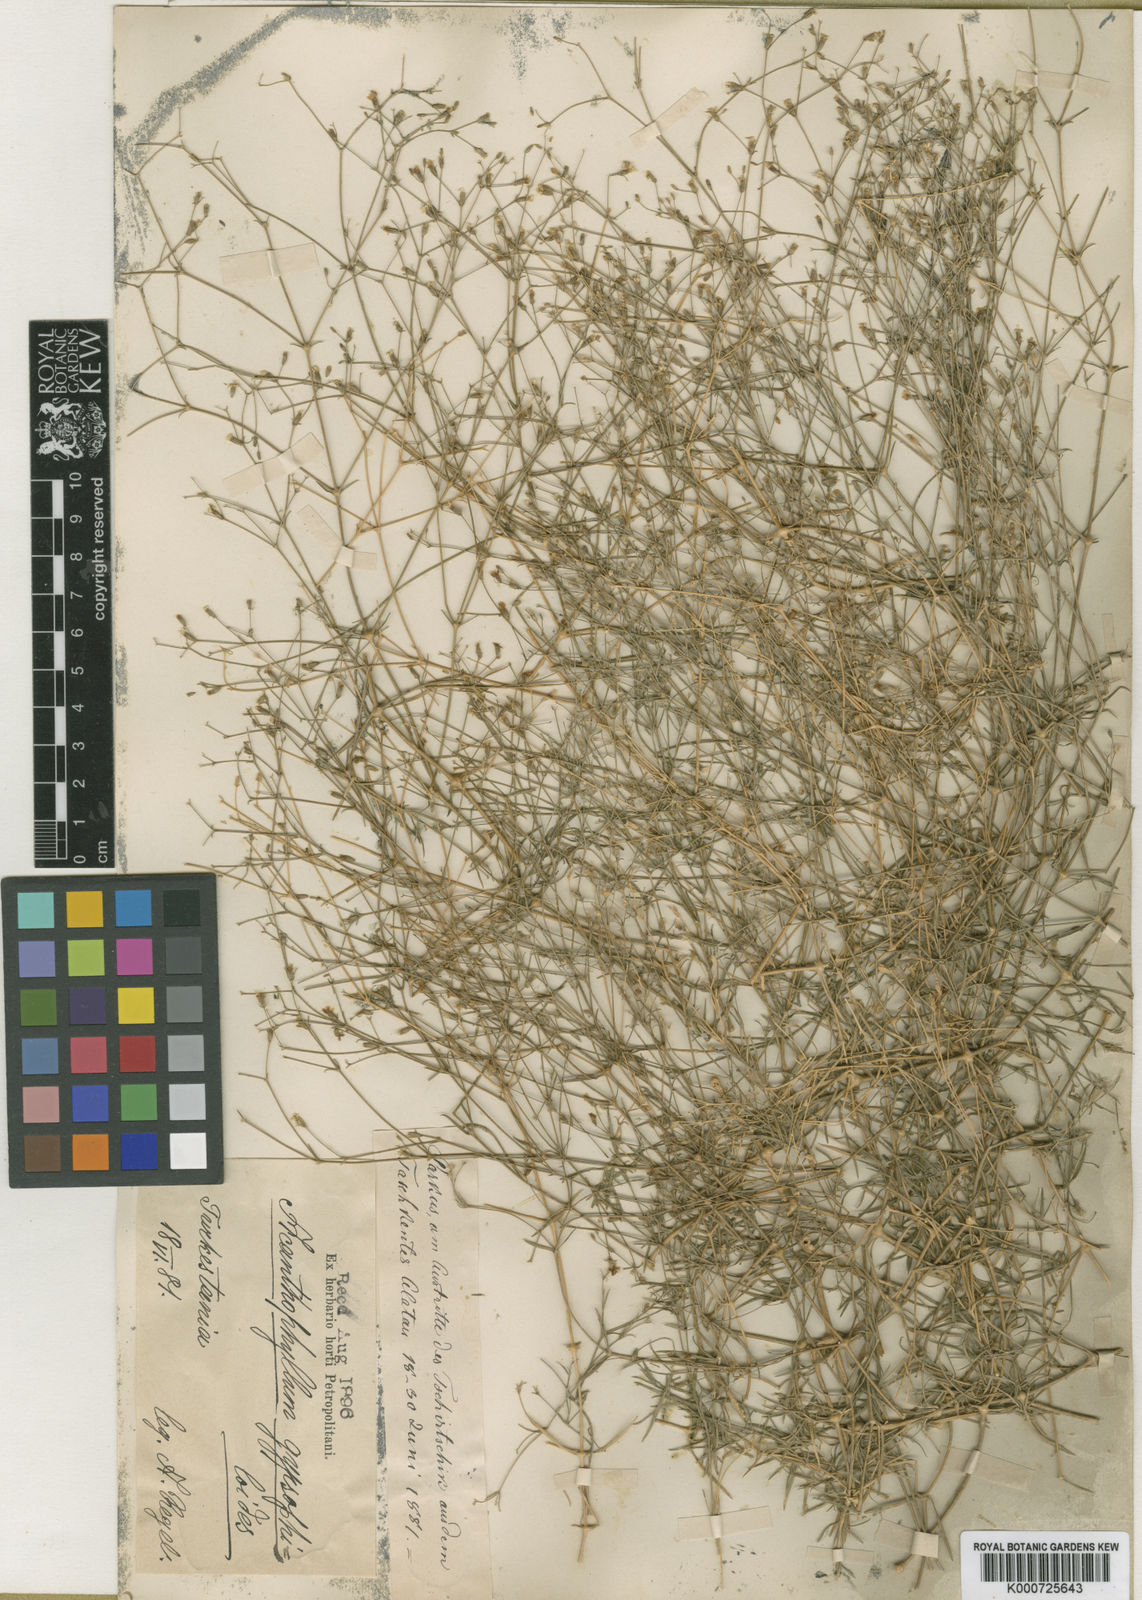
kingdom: Plantae
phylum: Tracheophyta
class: Magnoliopsida
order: Caryophyllales
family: Caryophyllaceae
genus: Acanthophyllum
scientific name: Acanthophyllum gypsophiloides
